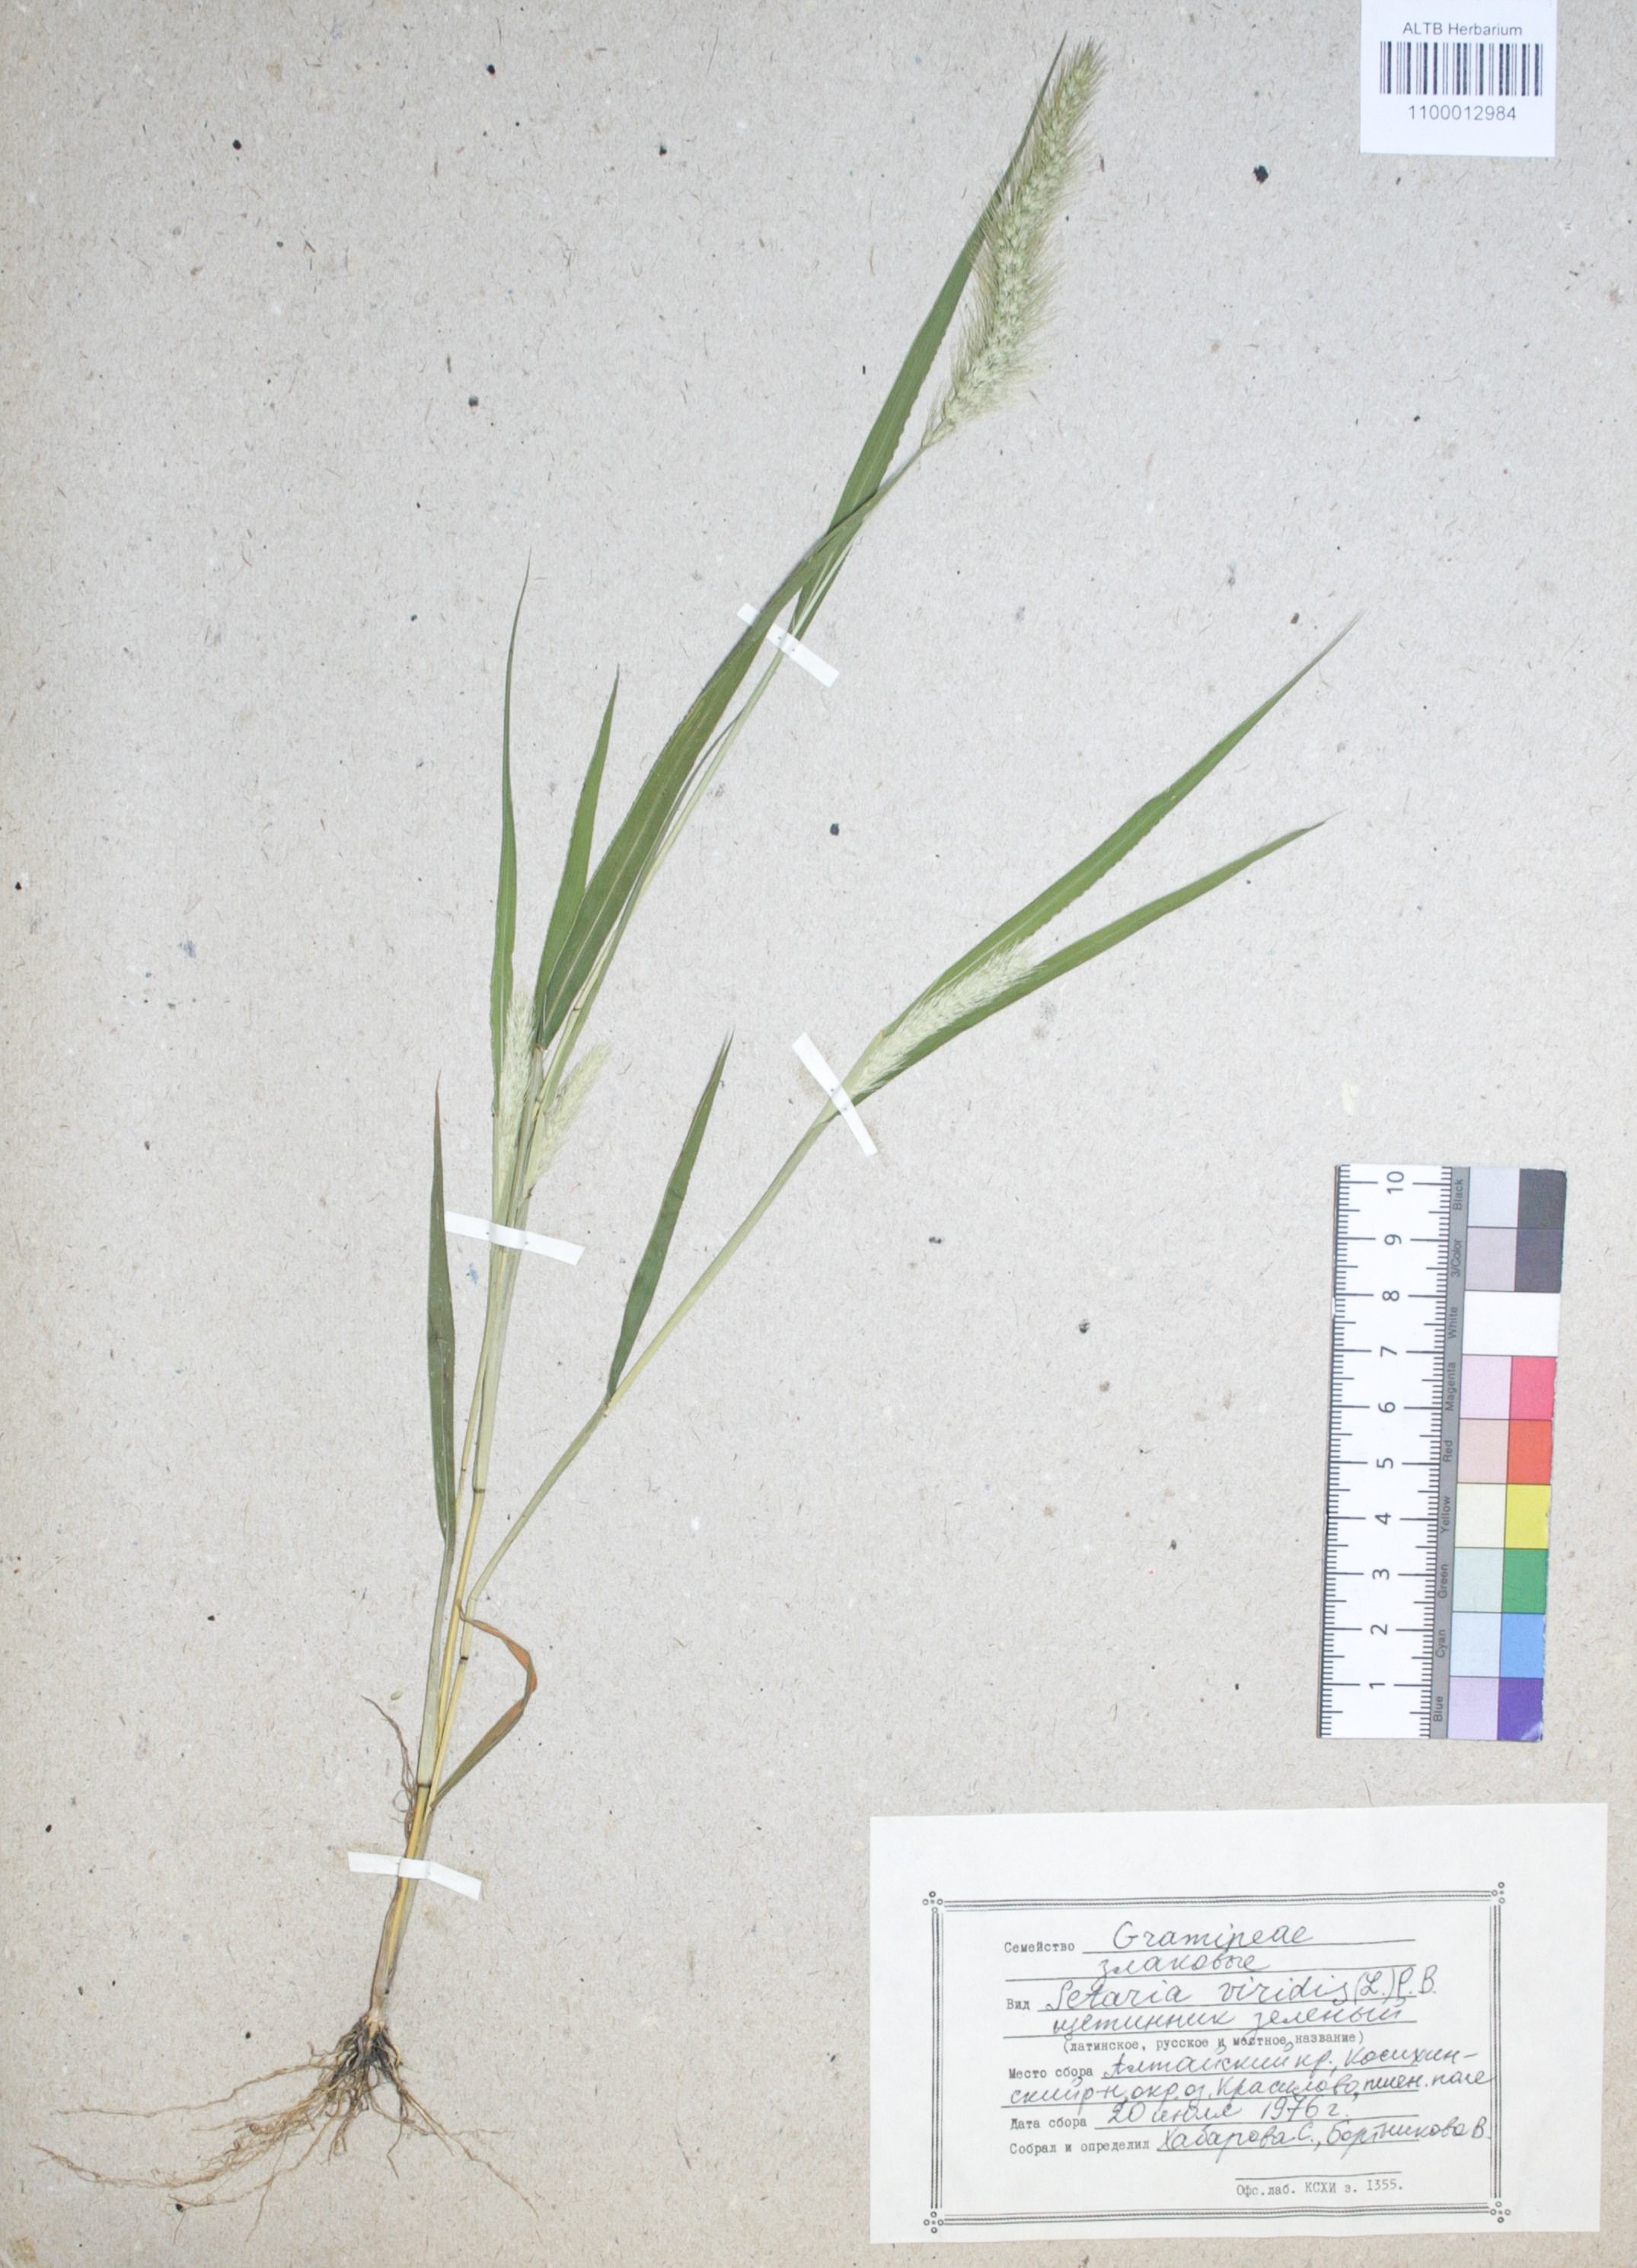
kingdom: Plantae
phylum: Tracheophyta
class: Liliopsida
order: Poales
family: Poaceae
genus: Setaria
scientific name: Setaria viridis
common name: Green bristlegrass
